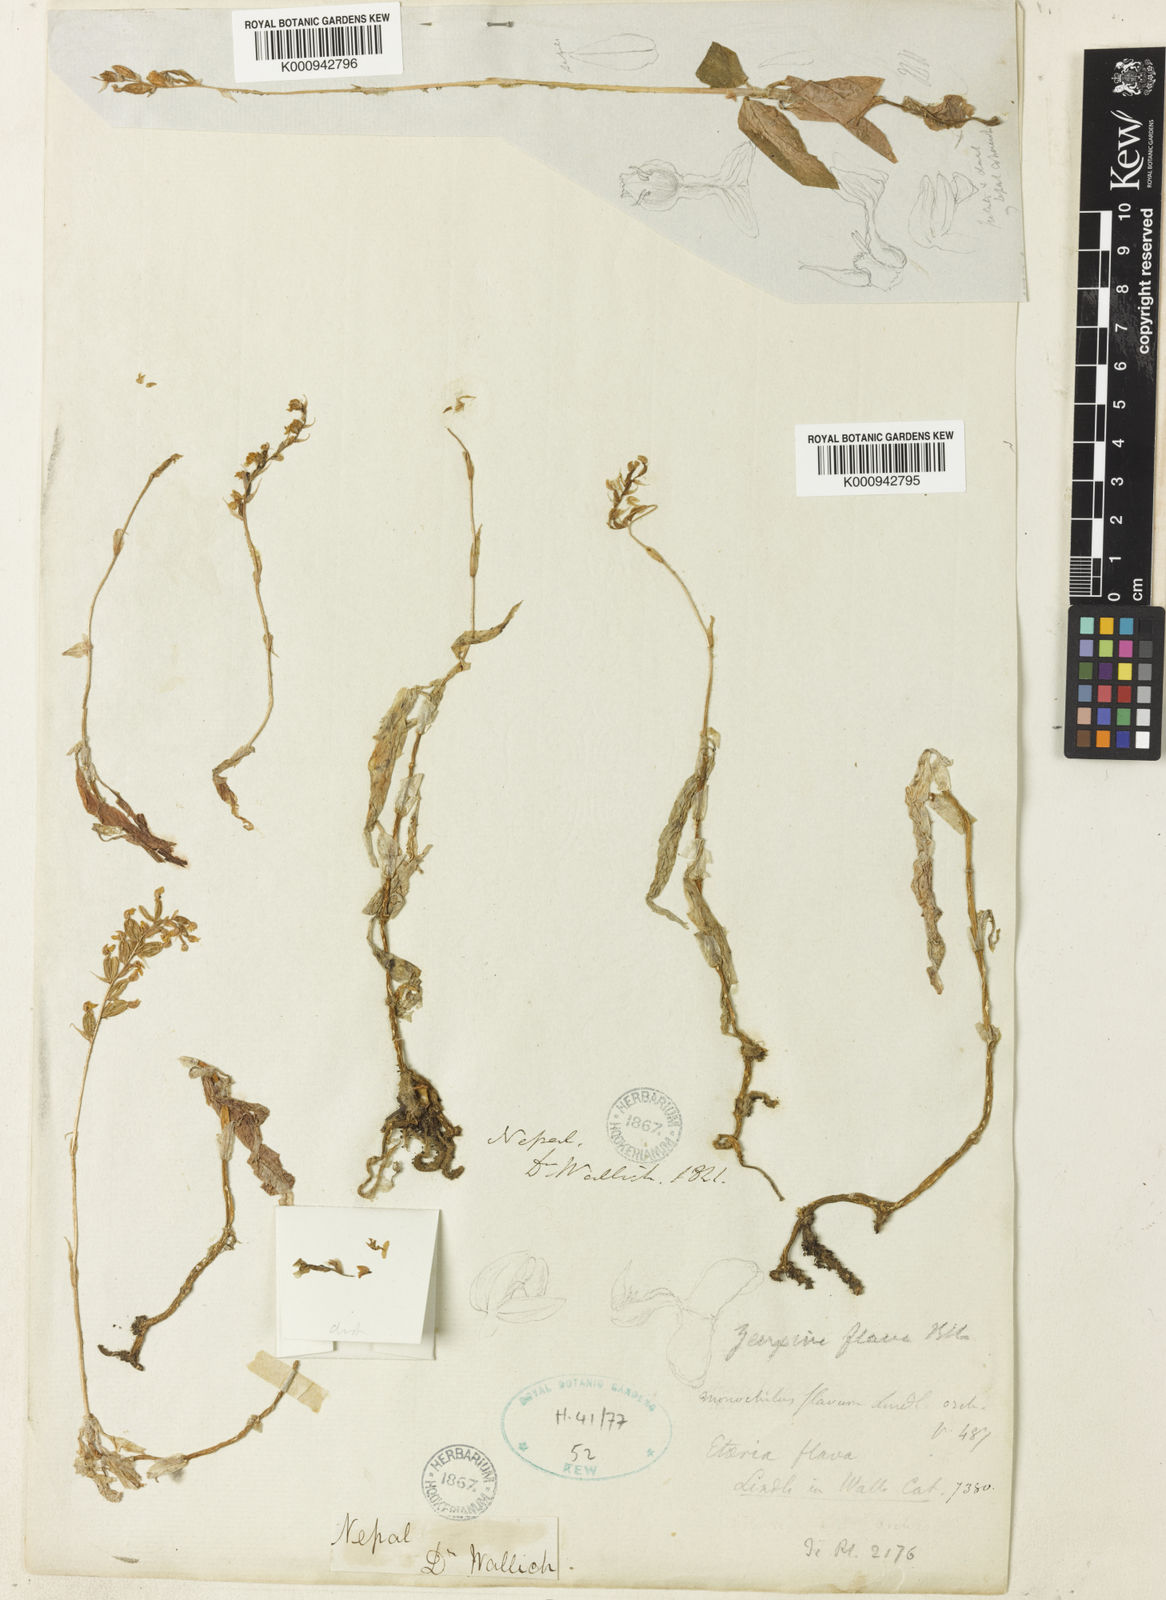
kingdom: Plantae
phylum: Tracheophyta
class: Liliopsida
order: Asparagales
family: Orchidaceae
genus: Zeuxine
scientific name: Zeuxine flava
